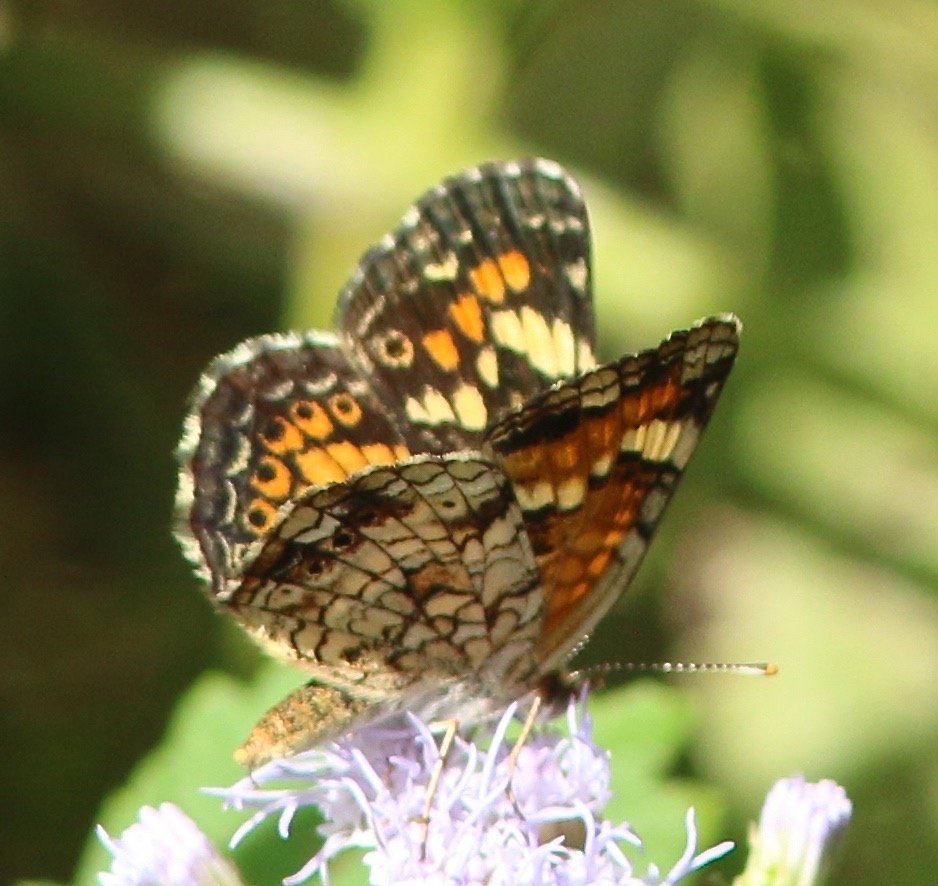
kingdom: Animalia
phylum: Arthropoda
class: Insecta
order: Lepidoptera
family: Nymphalidae
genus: Phyciodes
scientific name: Phyciodes phaon
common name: Phaon Crescent
